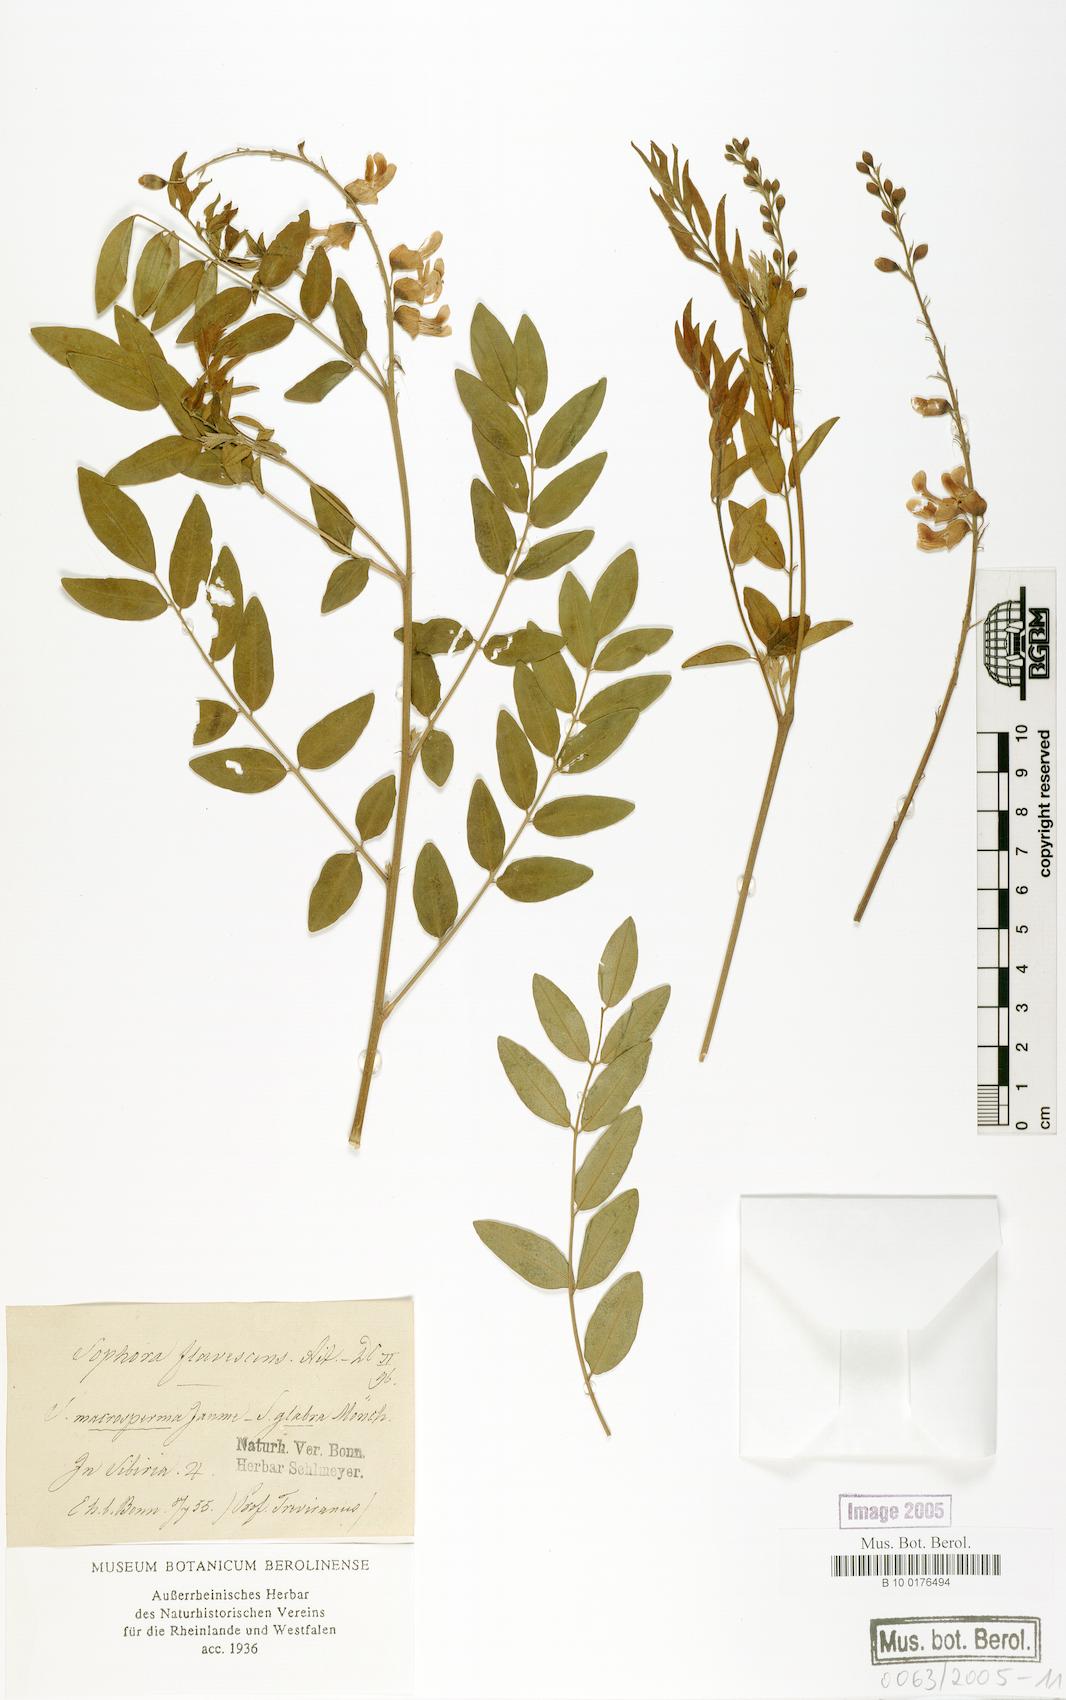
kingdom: Plantae
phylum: Tracheophyta
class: Magnoliopsida
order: Fabales
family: Fabaceae
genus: Sophora
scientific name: Sophora flavescens
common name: Shrubby sophora
